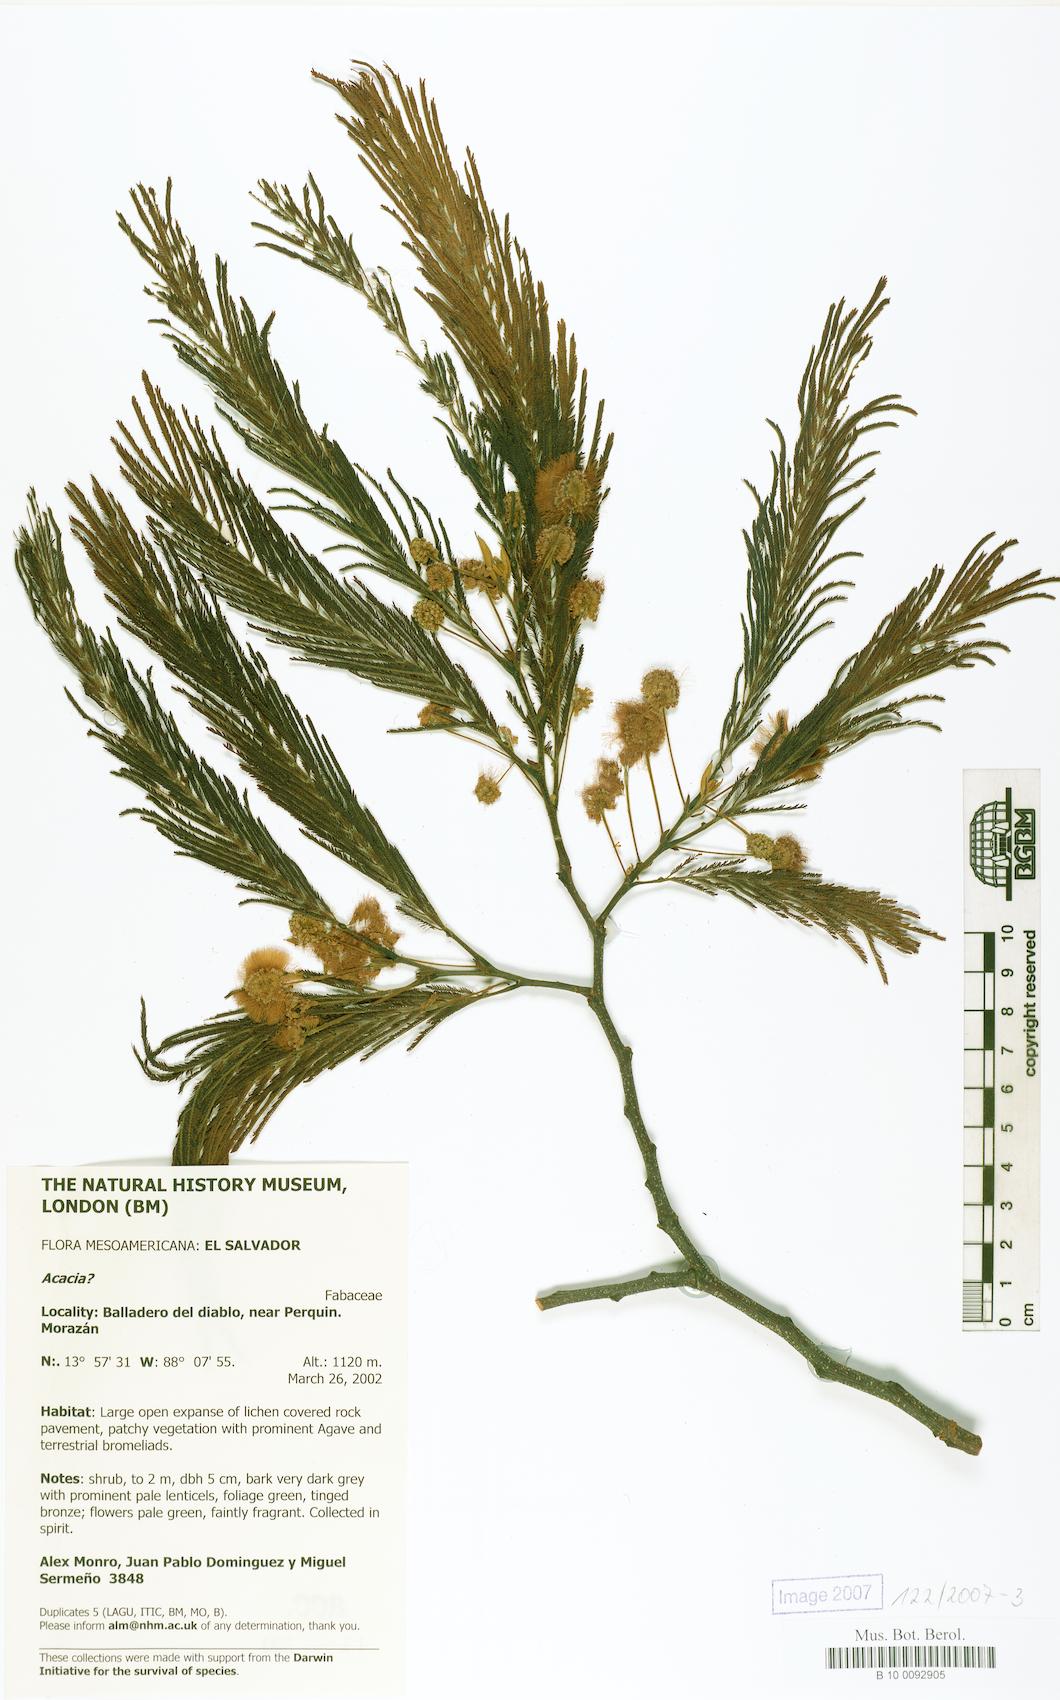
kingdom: Plantae
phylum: Tracheophyta
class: Magnoliopsida
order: Fabales
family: Fabaceae
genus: Lysiloma
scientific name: Lysiloma divaricatum
